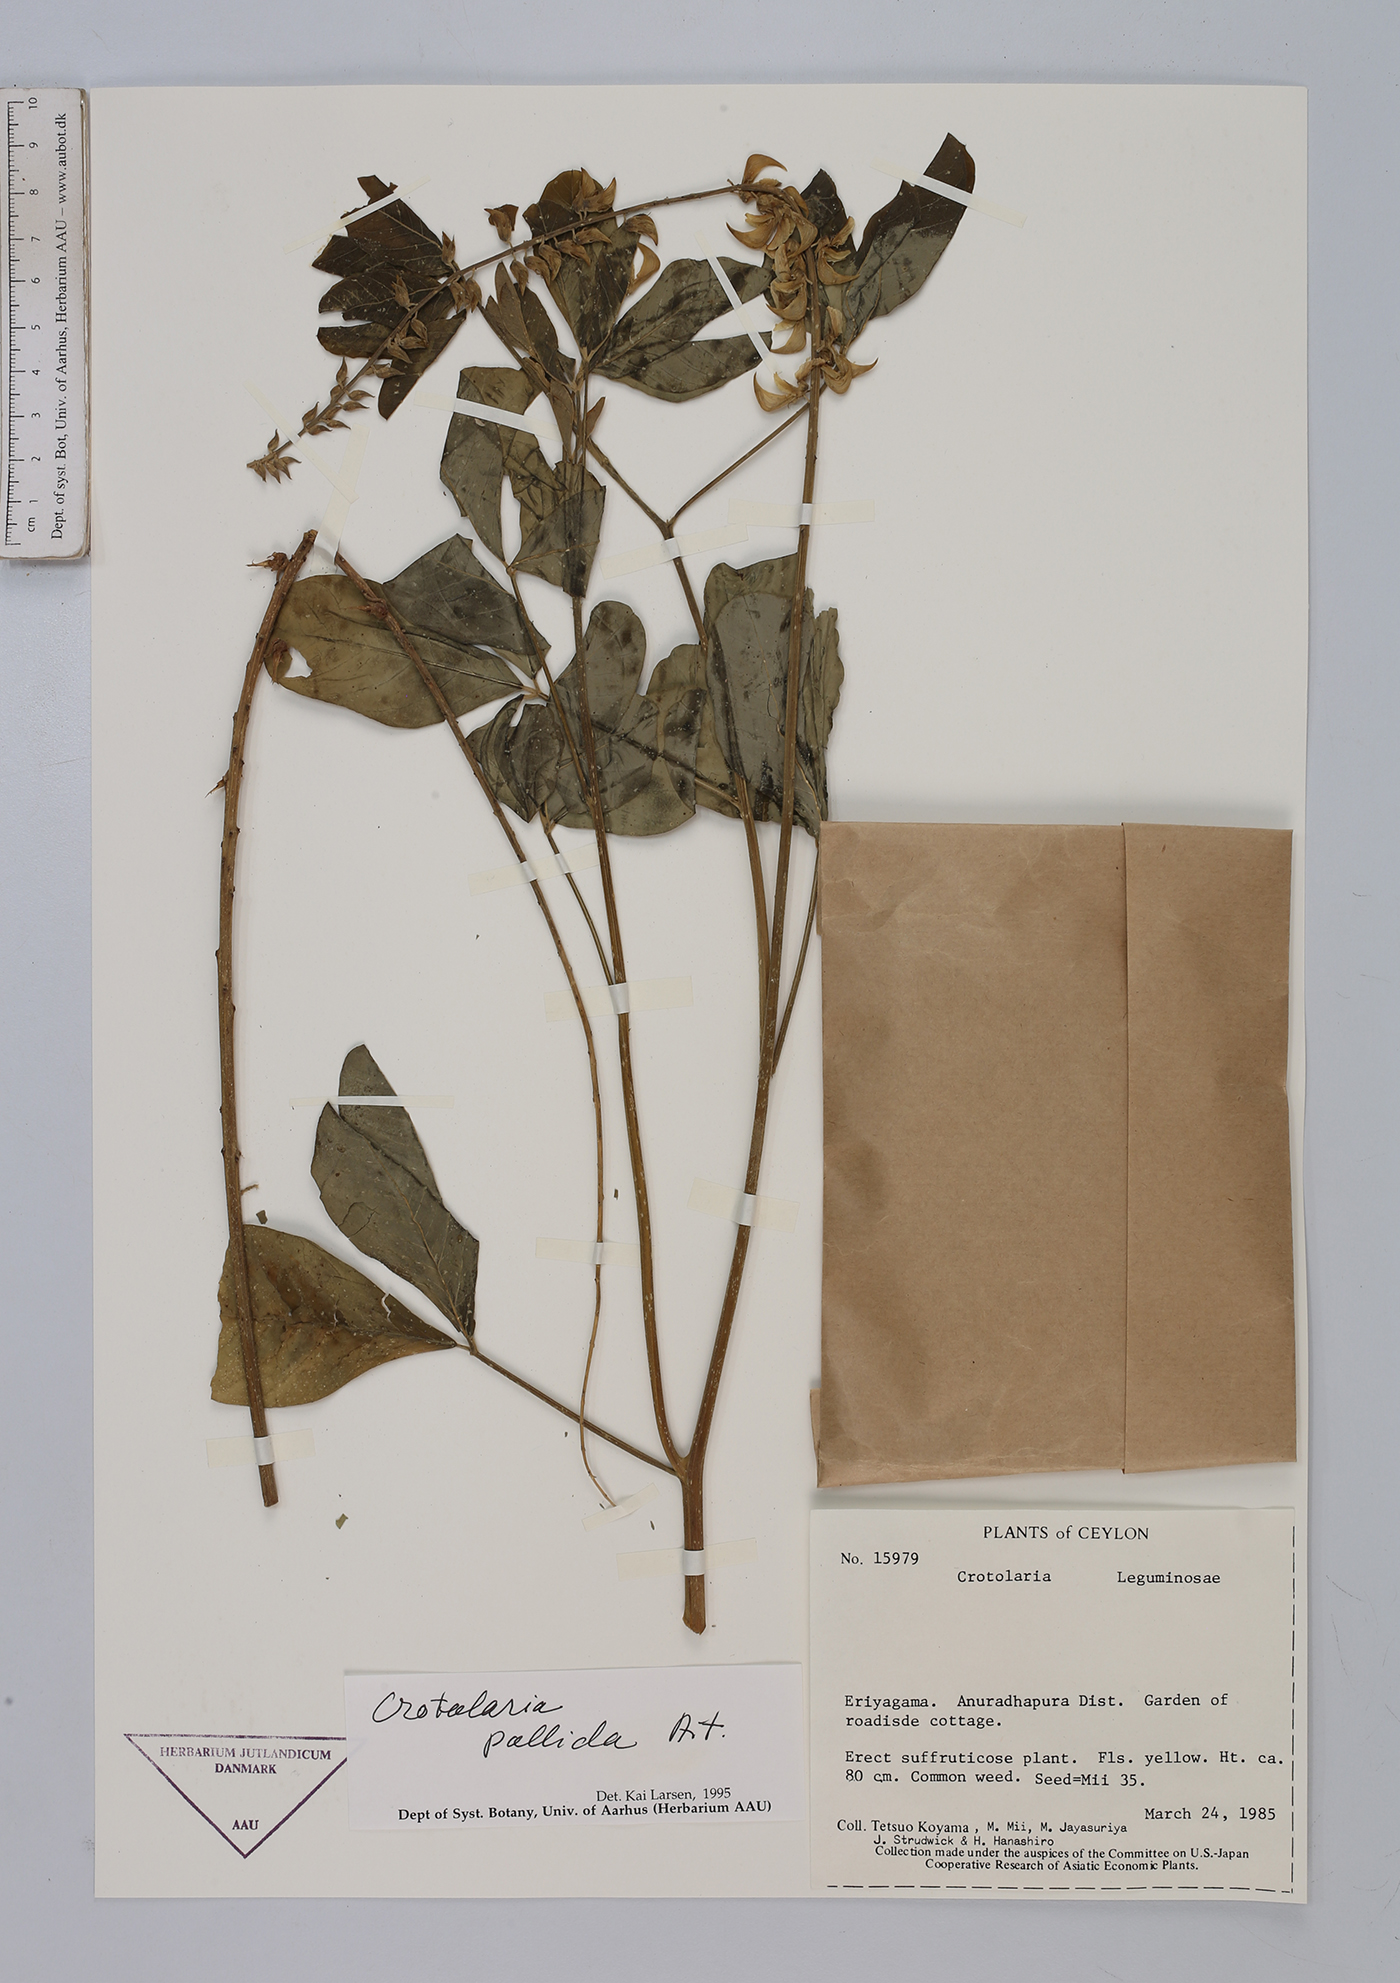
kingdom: Plantae
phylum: Tracheophyta
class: Magnoliopsida
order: Fabales
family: Fabaceae
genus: Crotalaria
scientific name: Crotalaria pallida
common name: Smooth rattlebox
